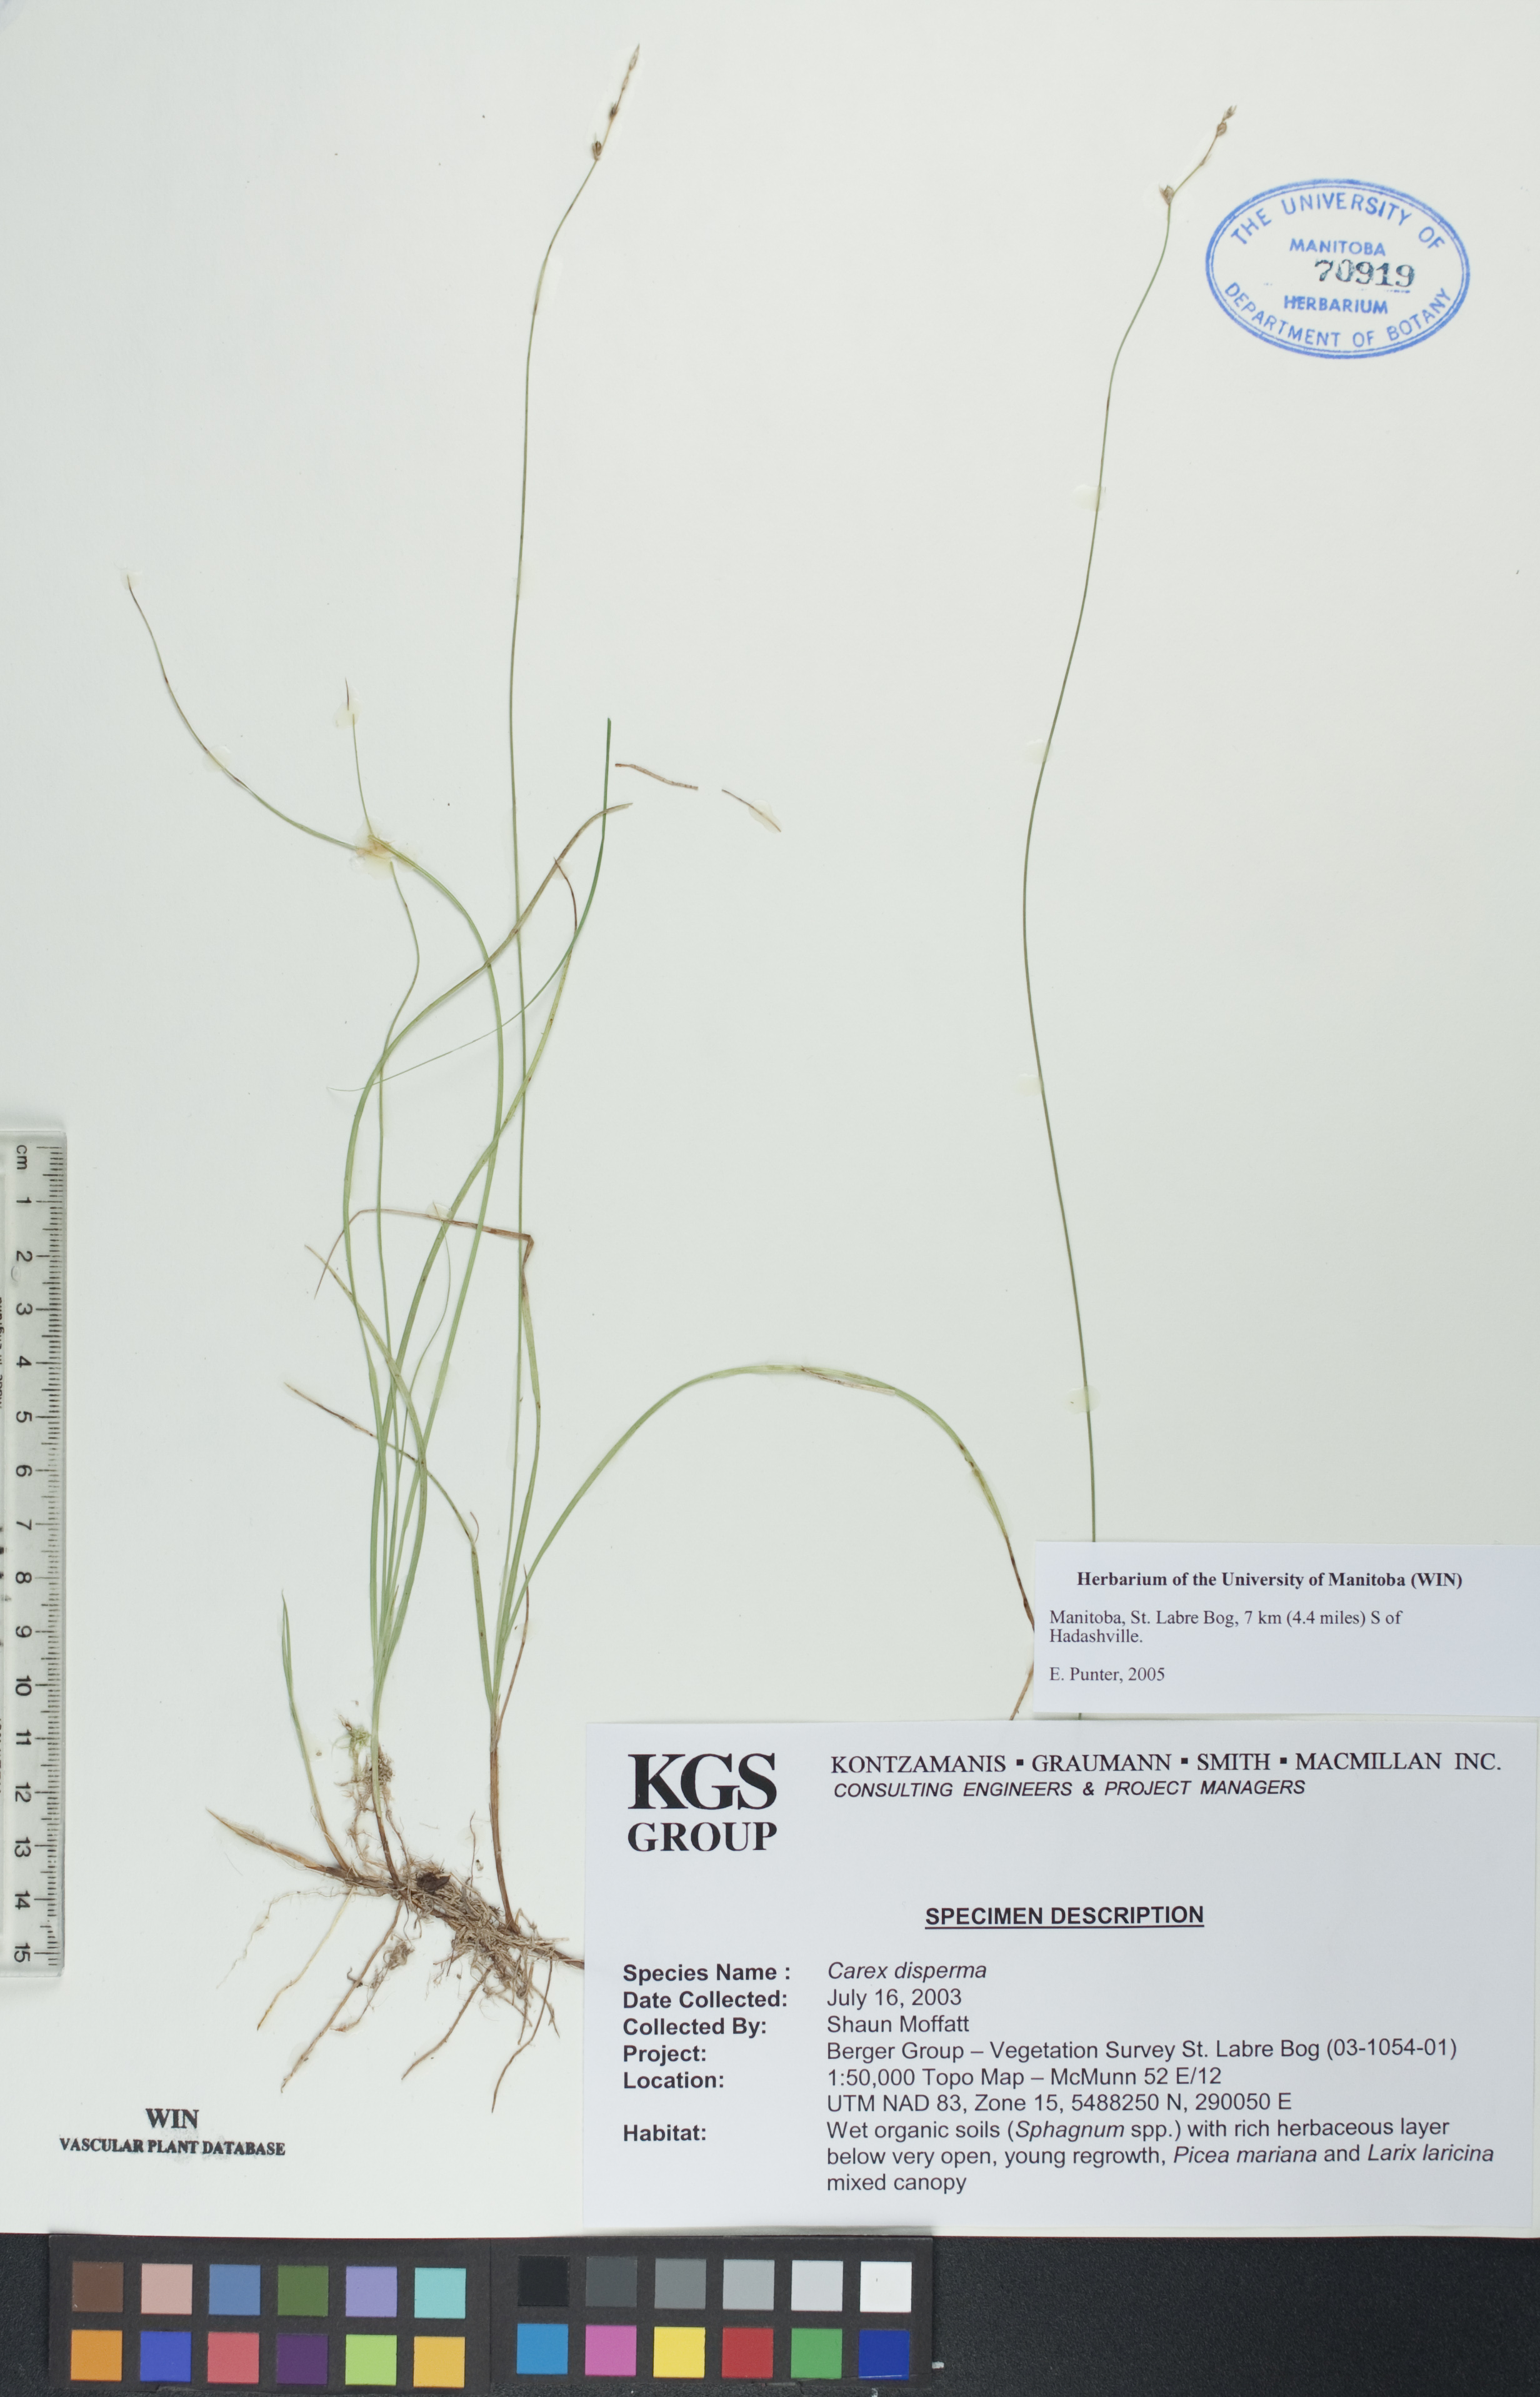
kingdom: Plantae
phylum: Tracheophyta
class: Liliopsida
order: Poales
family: Cyperaceae
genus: Carex
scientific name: Carex disperma
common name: Short-leaved sedge
